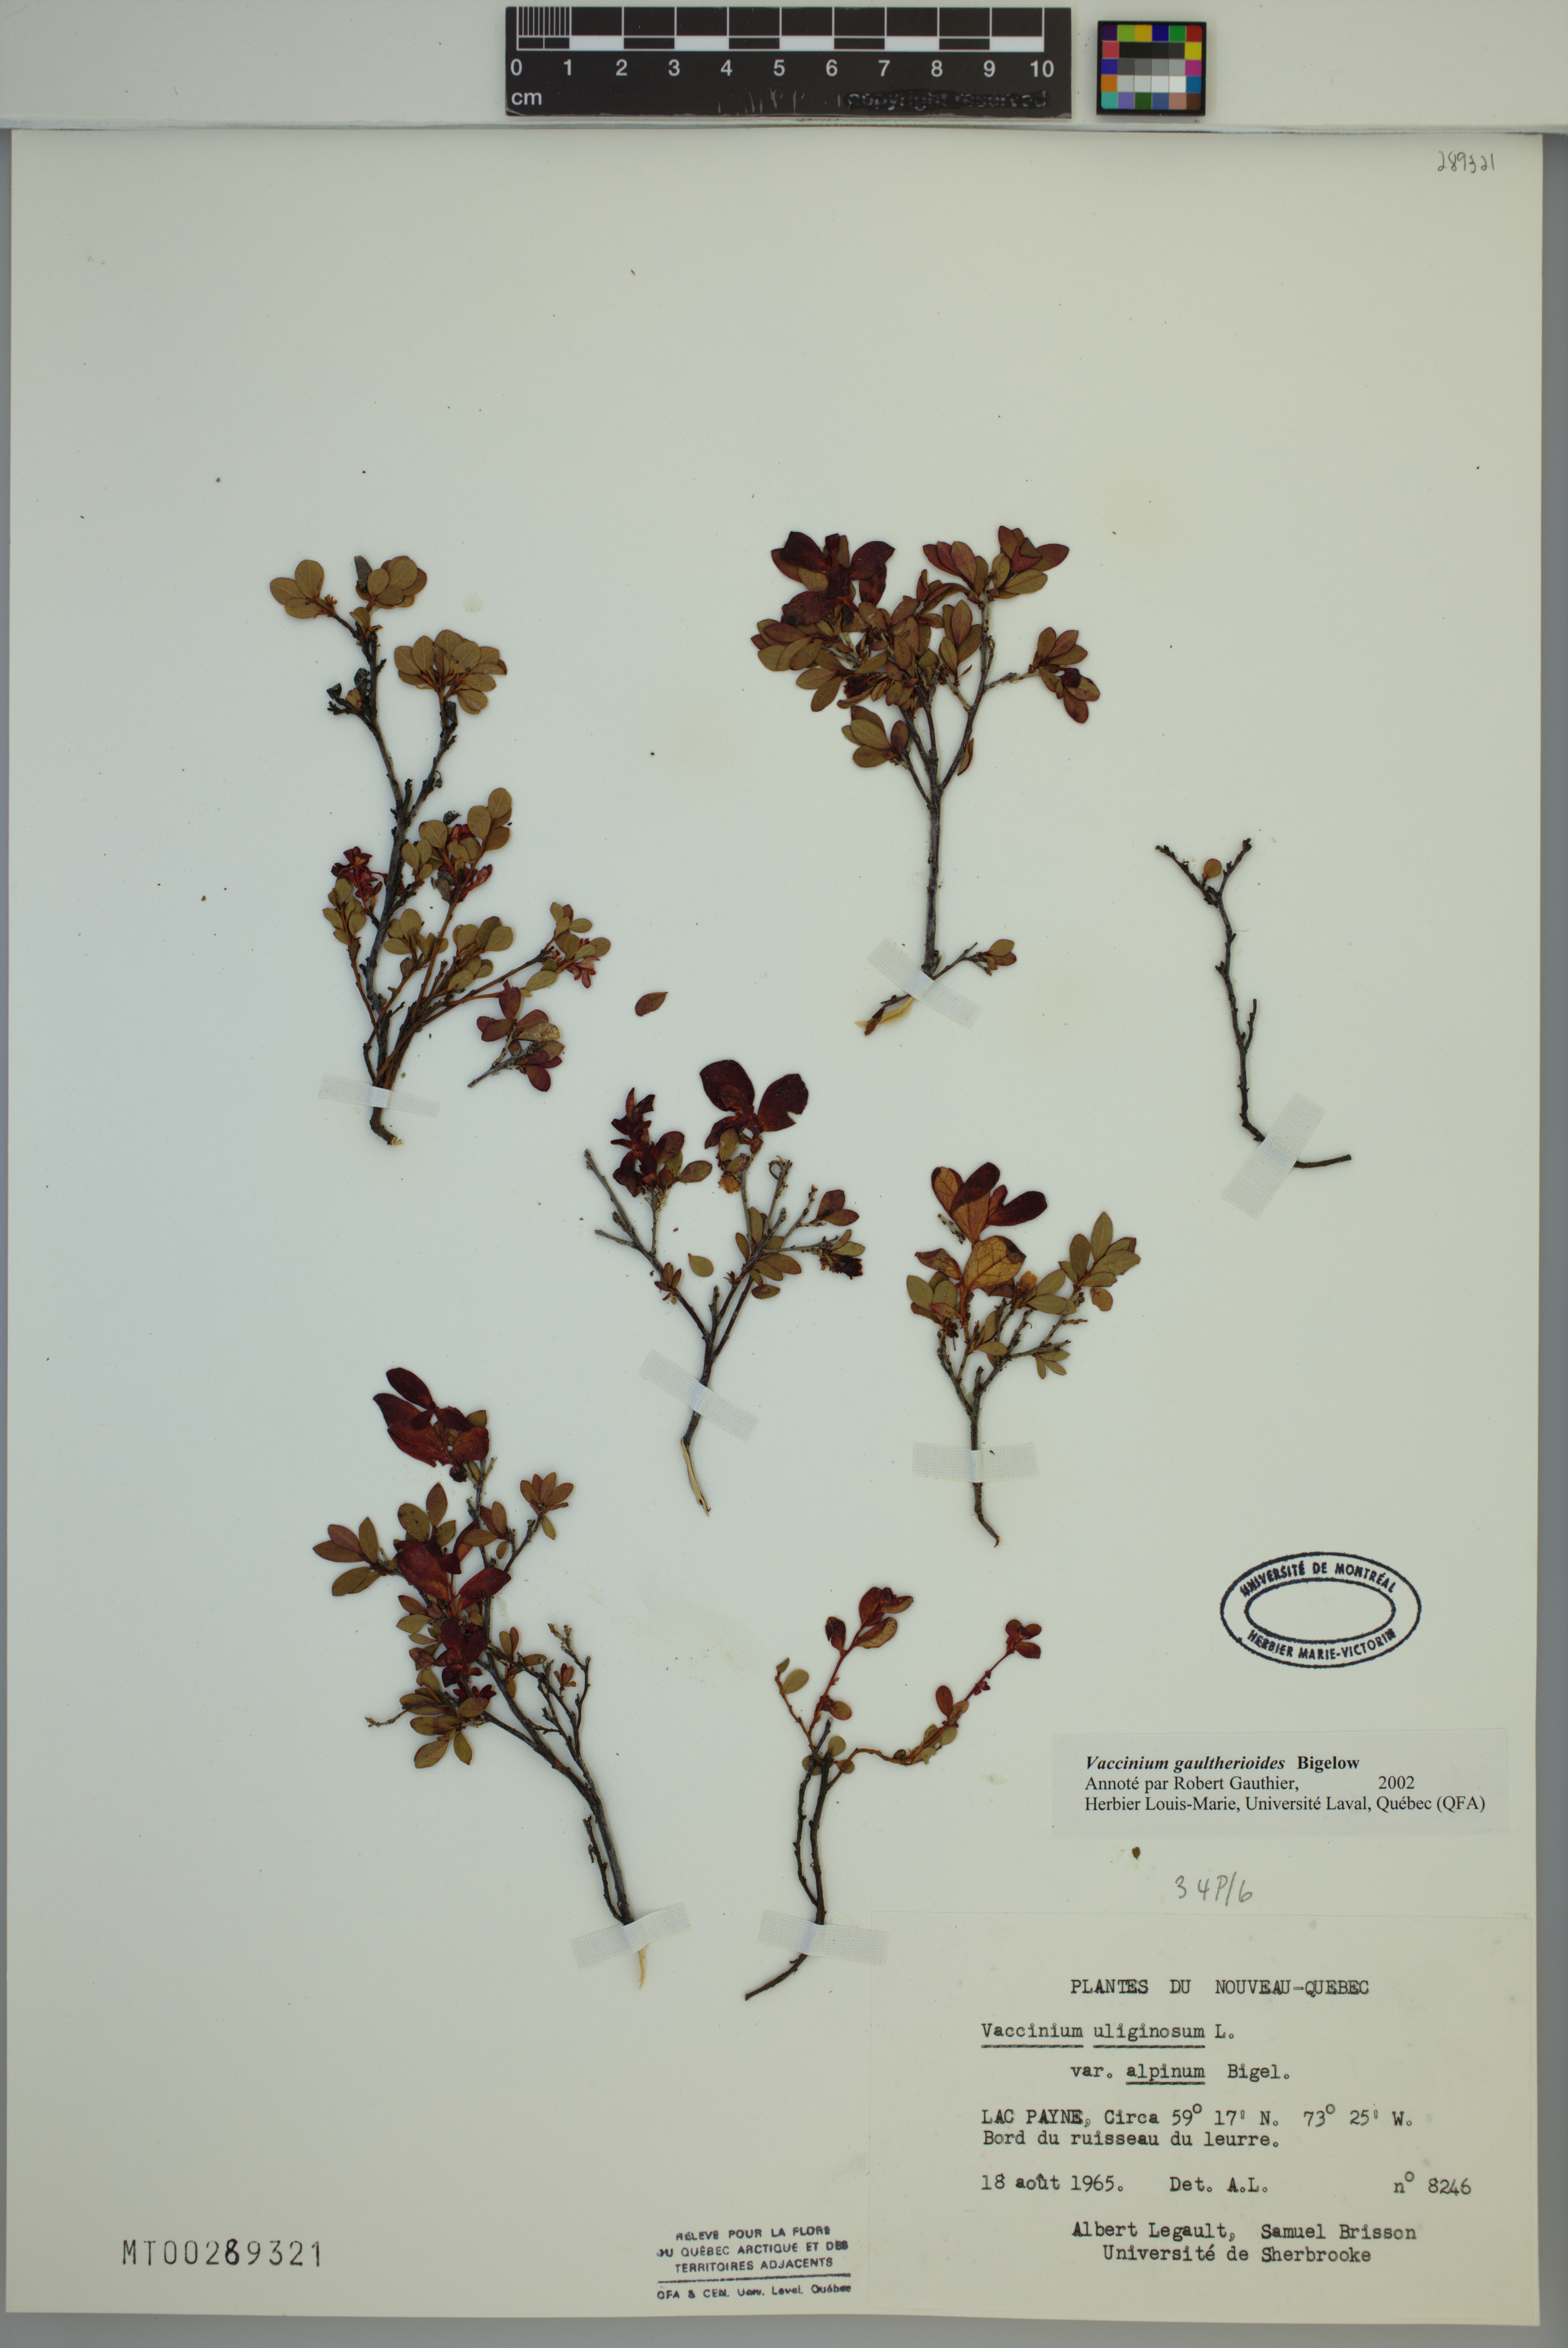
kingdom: Plantae
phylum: Tracheophyta
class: Magnoliopsida
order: Ericales
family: Ericaceae
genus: Vaccinium
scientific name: Vaccinium gaultherioides
